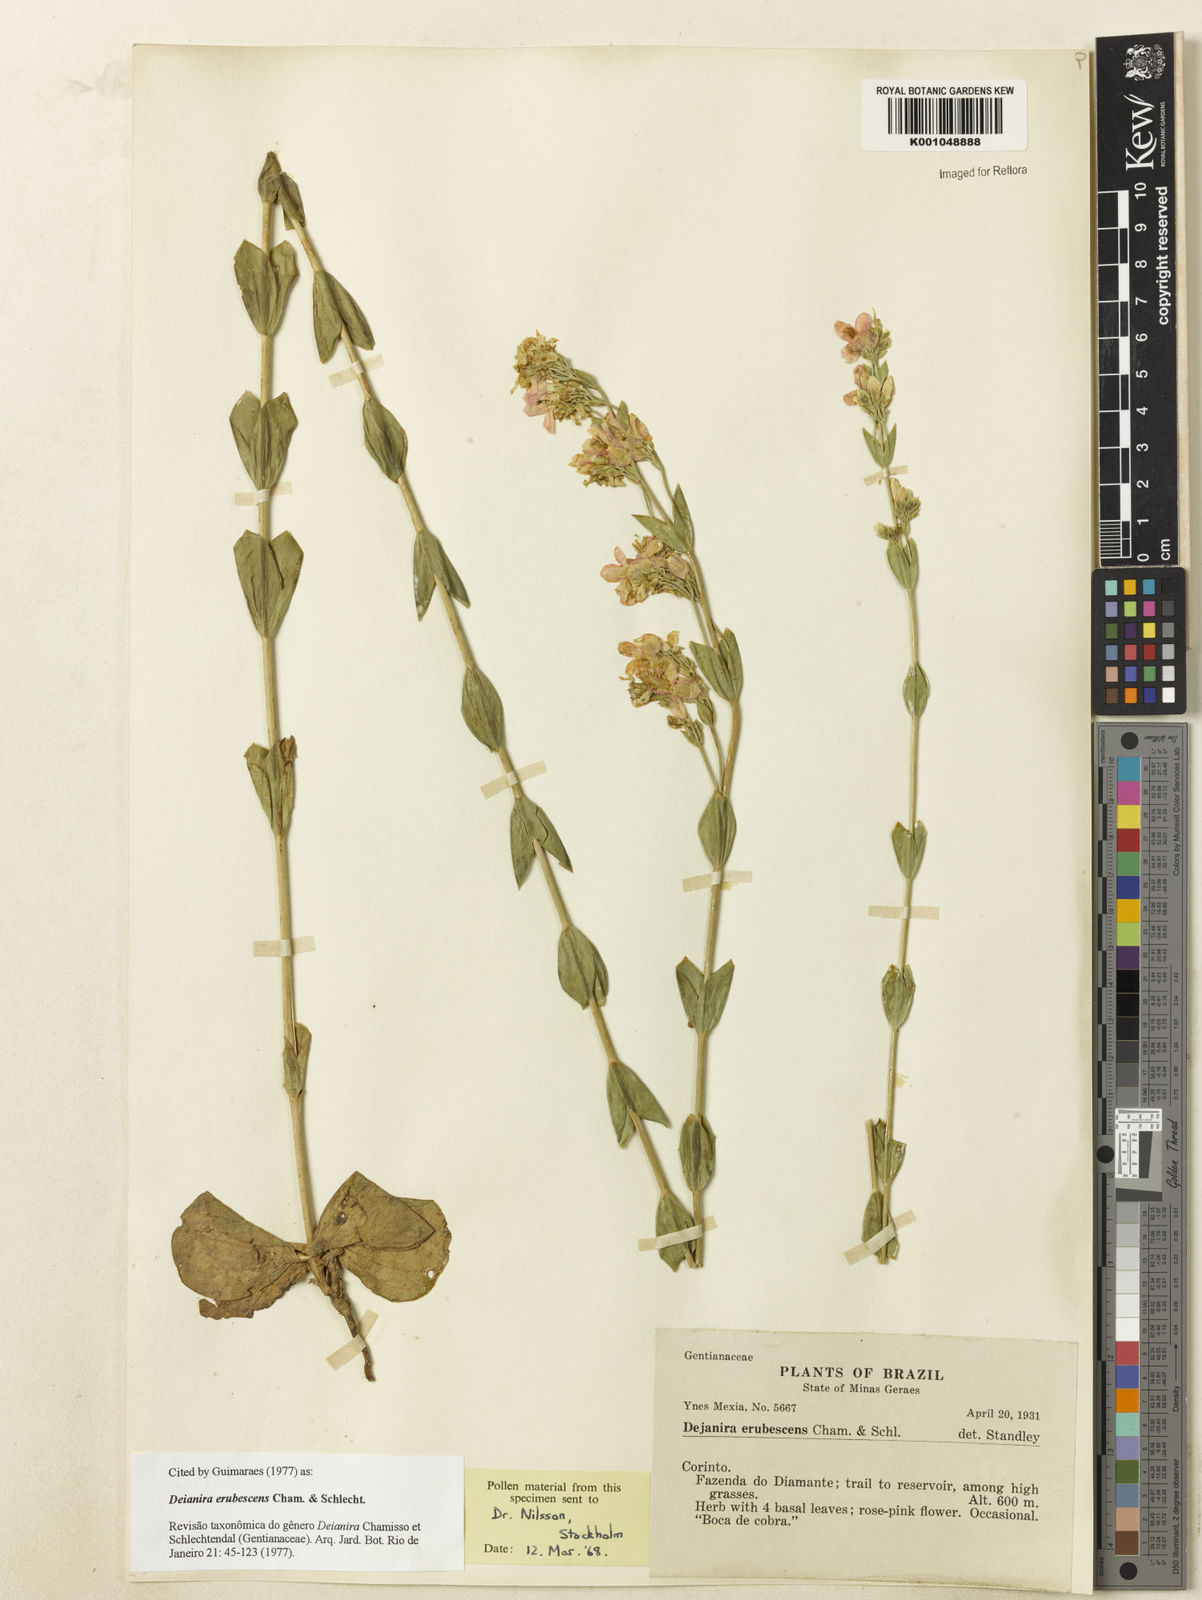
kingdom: Plantae
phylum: Tracheophyta
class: Magnoliopsida
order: Gentianales
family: Gentianaceae
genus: Deianira
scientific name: Deianira erubescens
